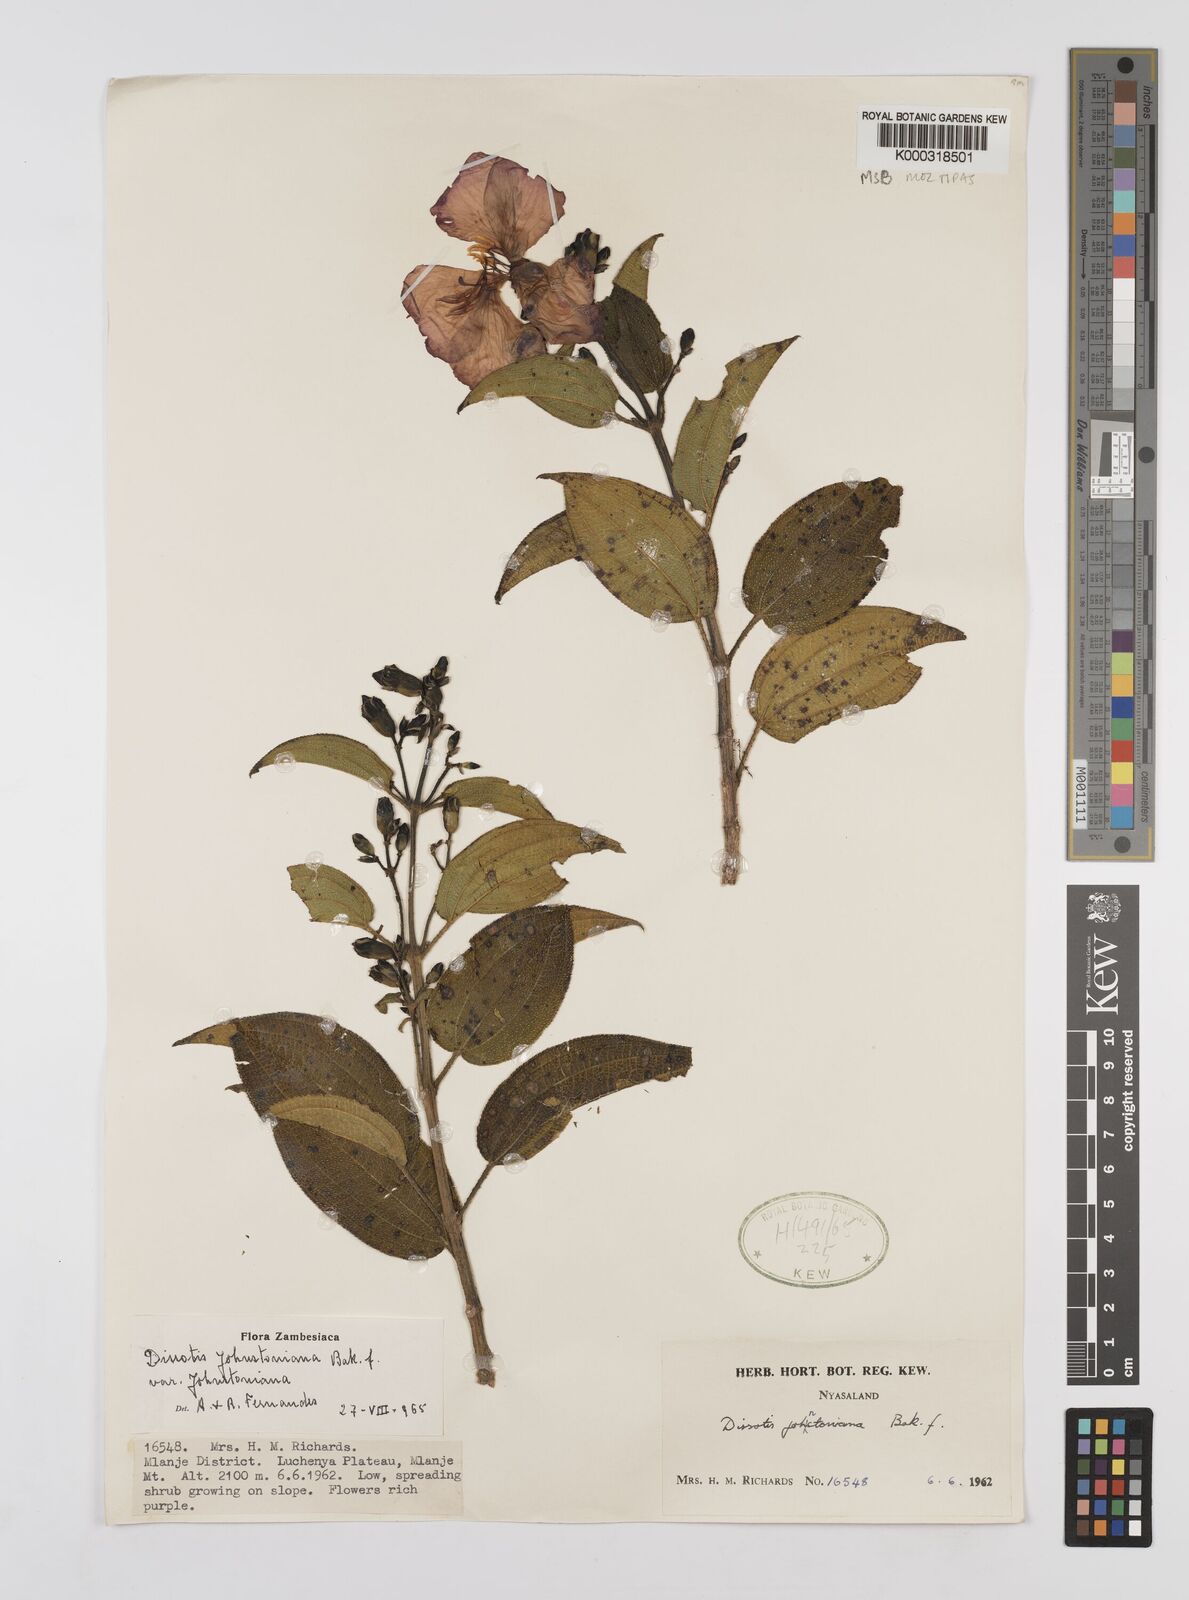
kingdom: Plantae
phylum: Tracheophyta
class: Magnoliopsida
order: Myrtales
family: Melastomataceae
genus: Dissotidendron
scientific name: Dissotidendron johnstonianum
